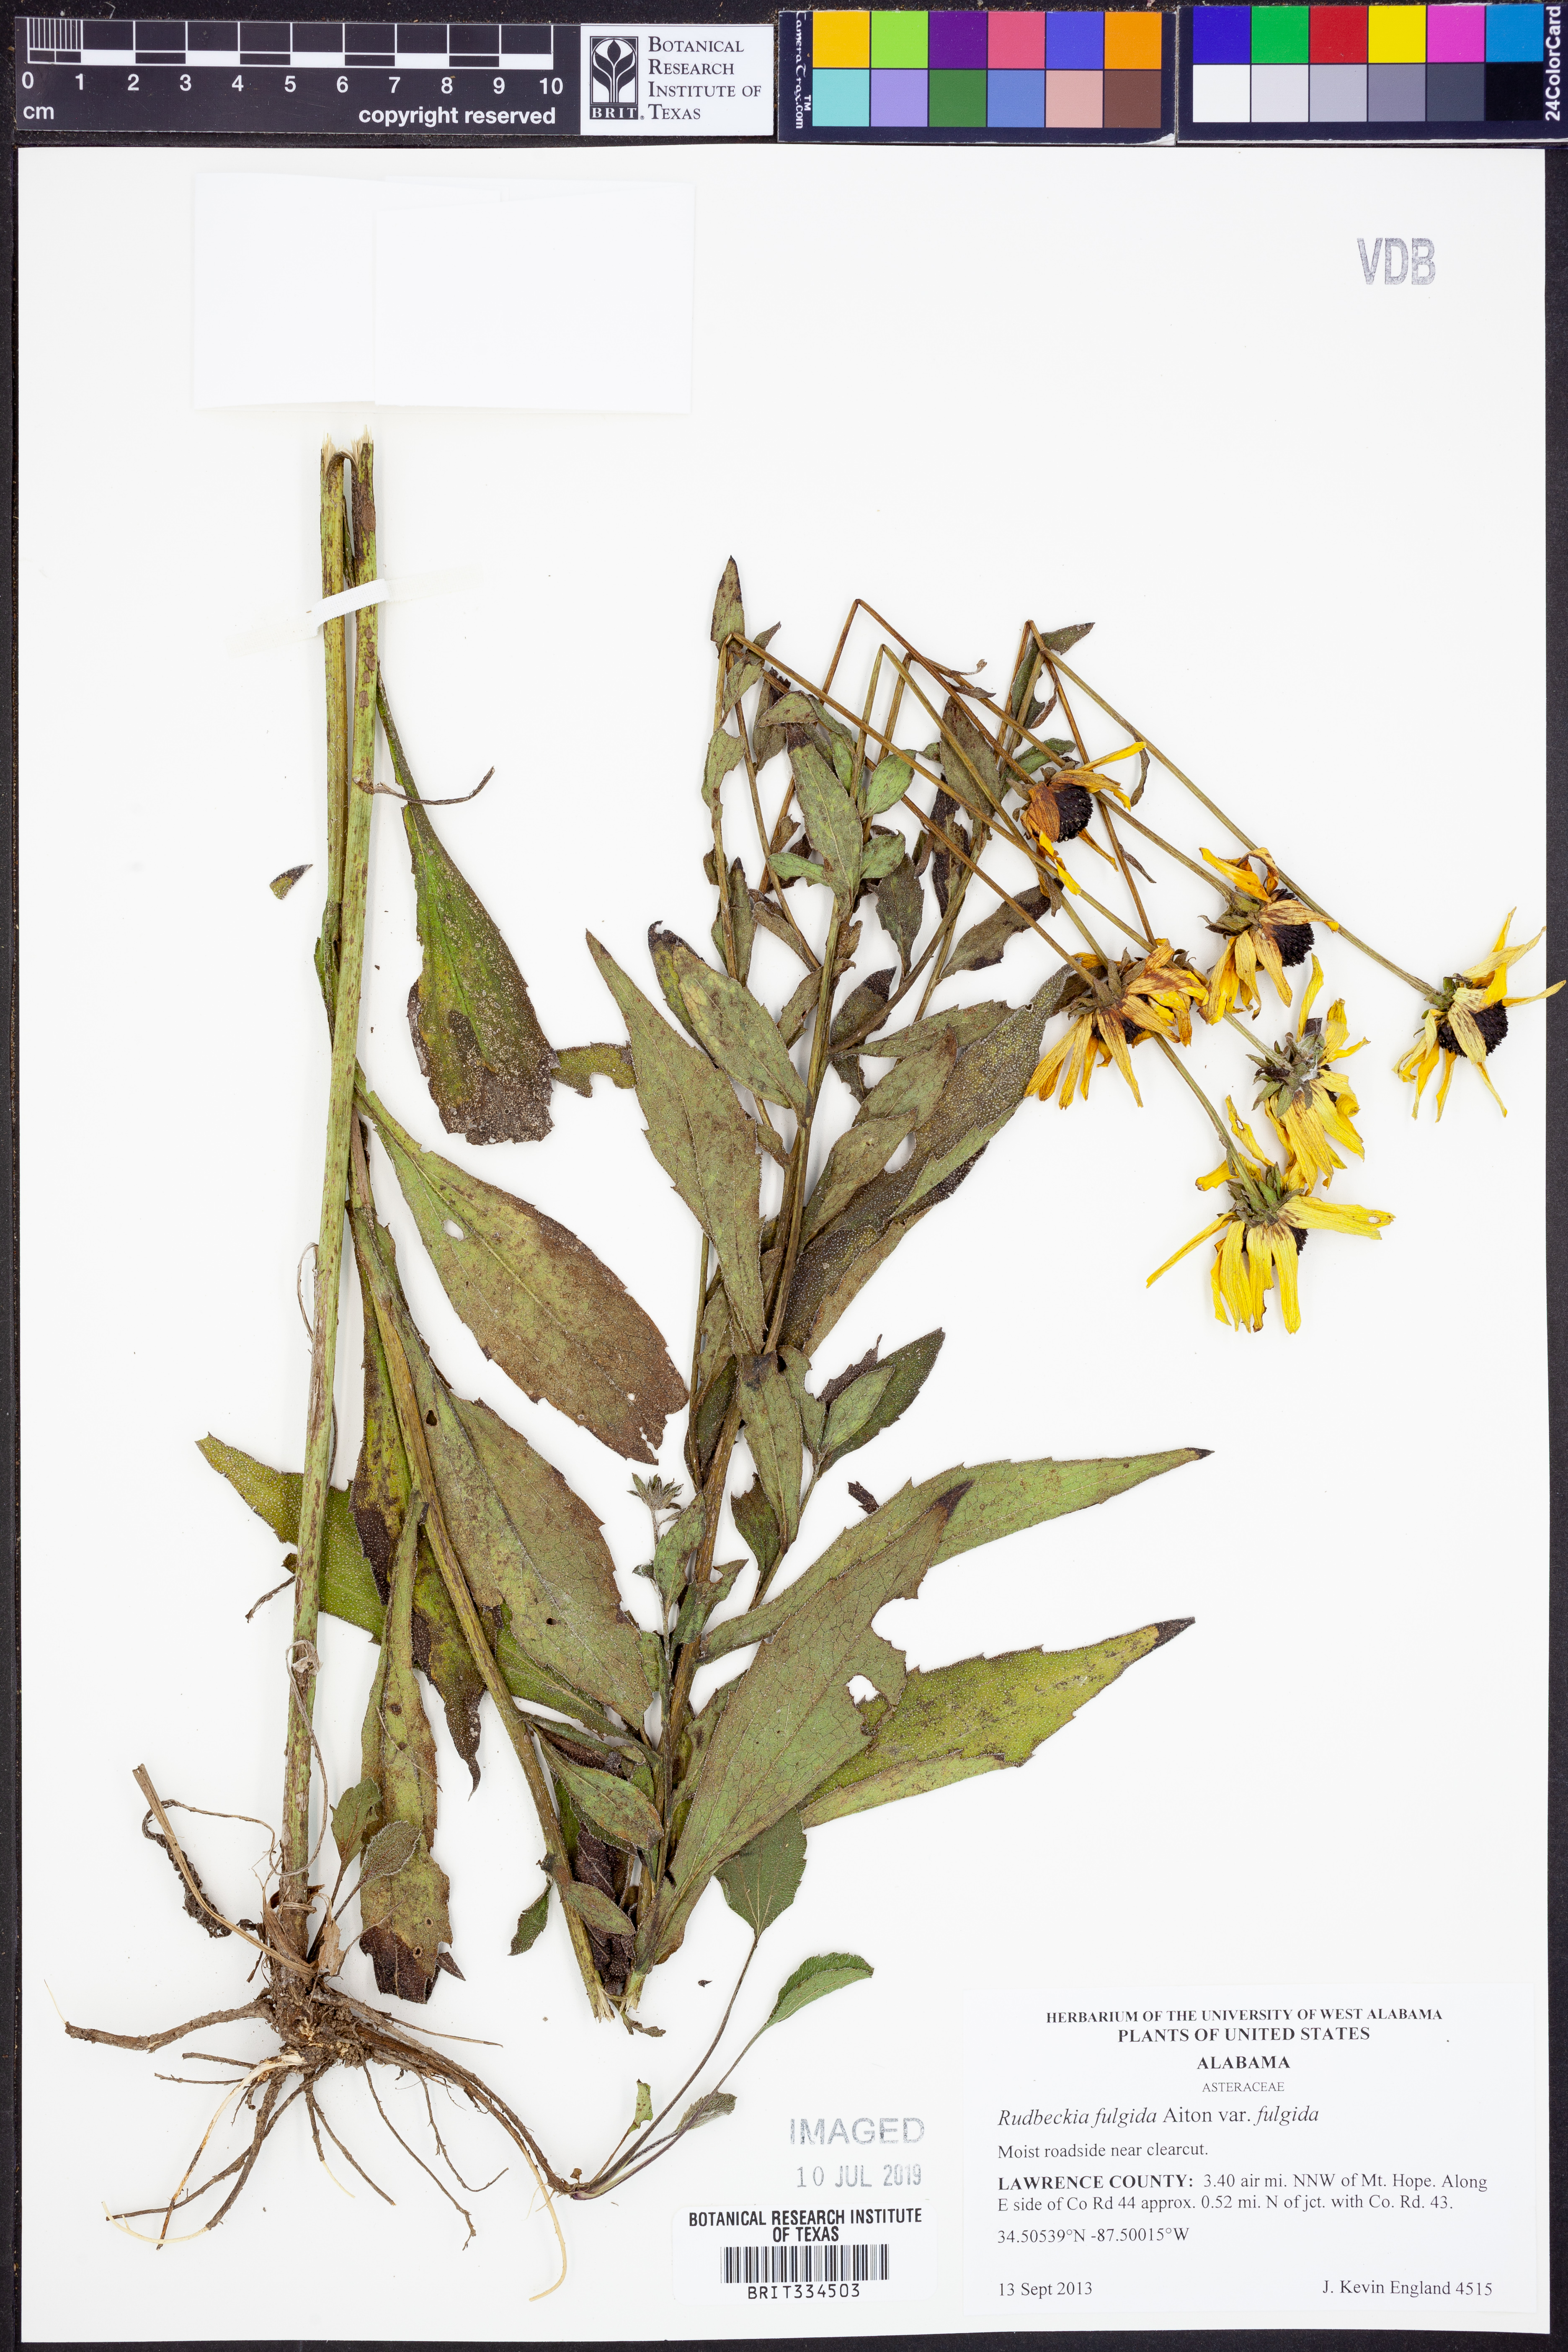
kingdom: Plantae
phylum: Tracheophyta
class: Magnoliopsida
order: Asterales
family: Asteraceae
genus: Rudbeckia
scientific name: Rudbeckia fulgida
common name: Perennial coneflower
